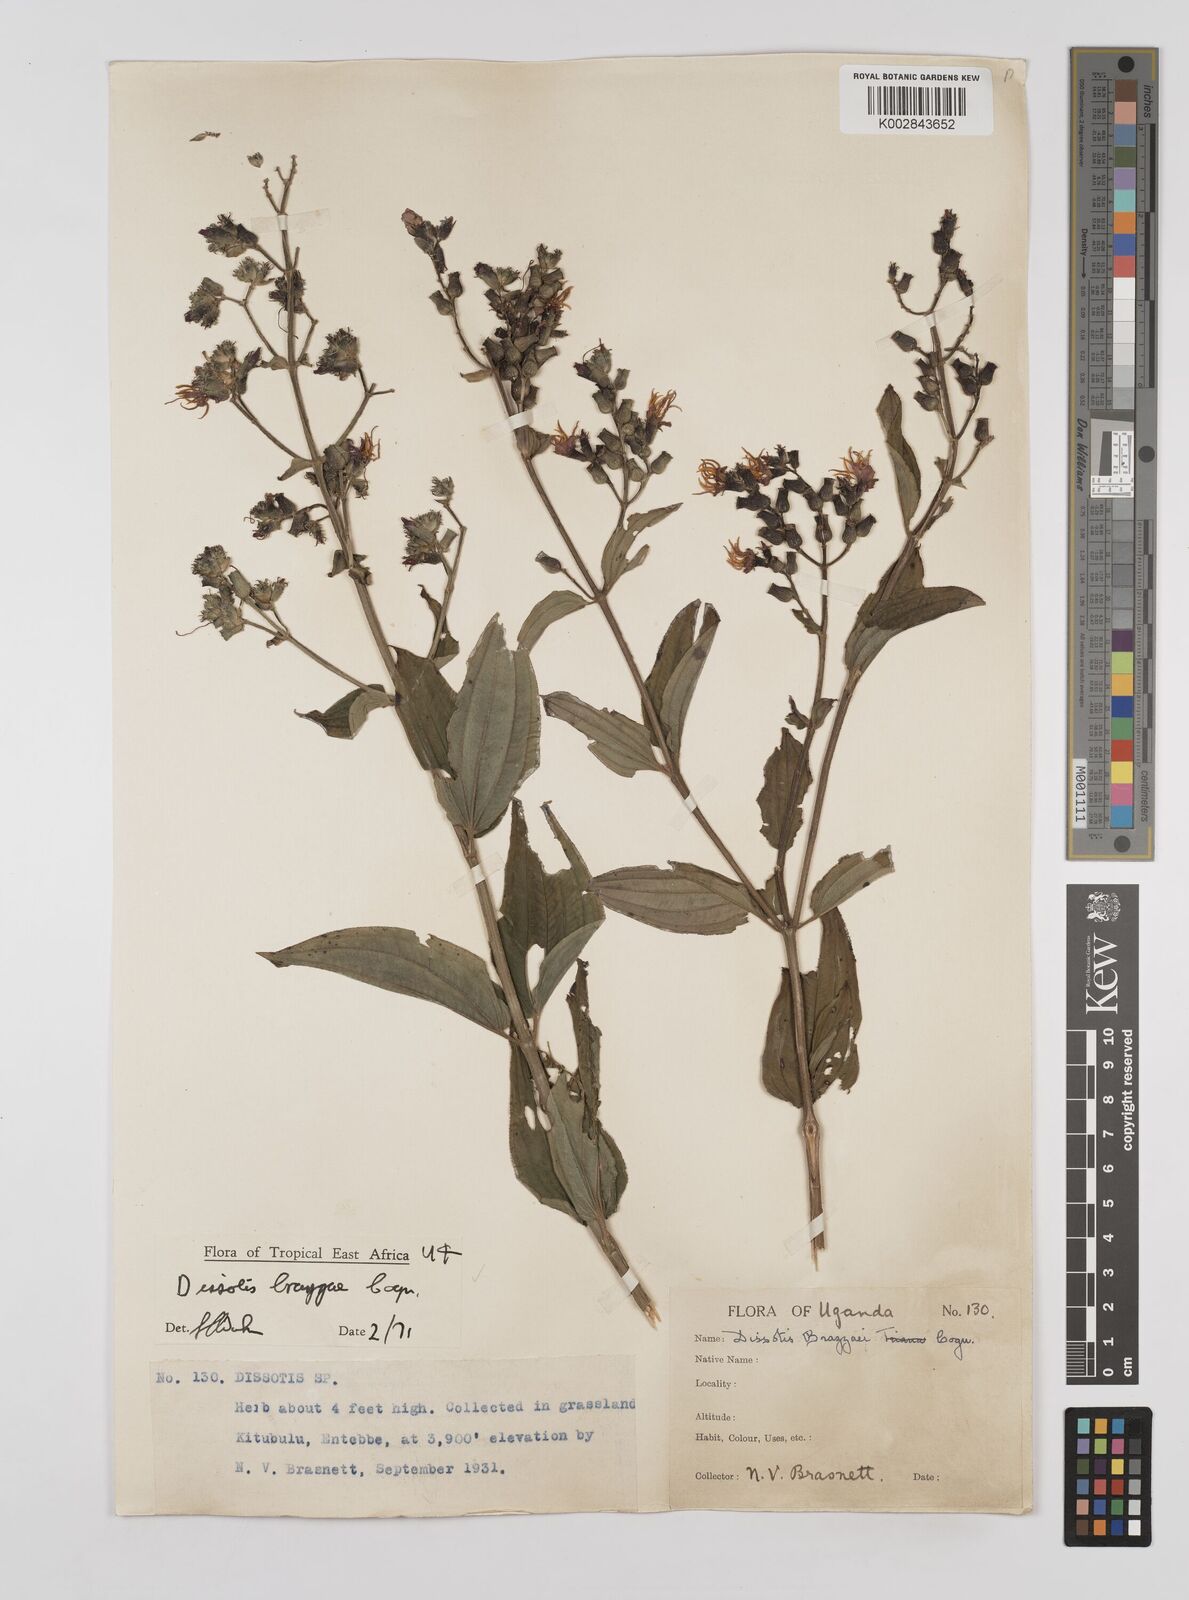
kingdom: Plantae
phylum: Tracheophyta
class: Magnoliopsida
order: Myrtales
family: Melastomataceae
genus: Dupineta
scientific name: Dupineta brazzae
